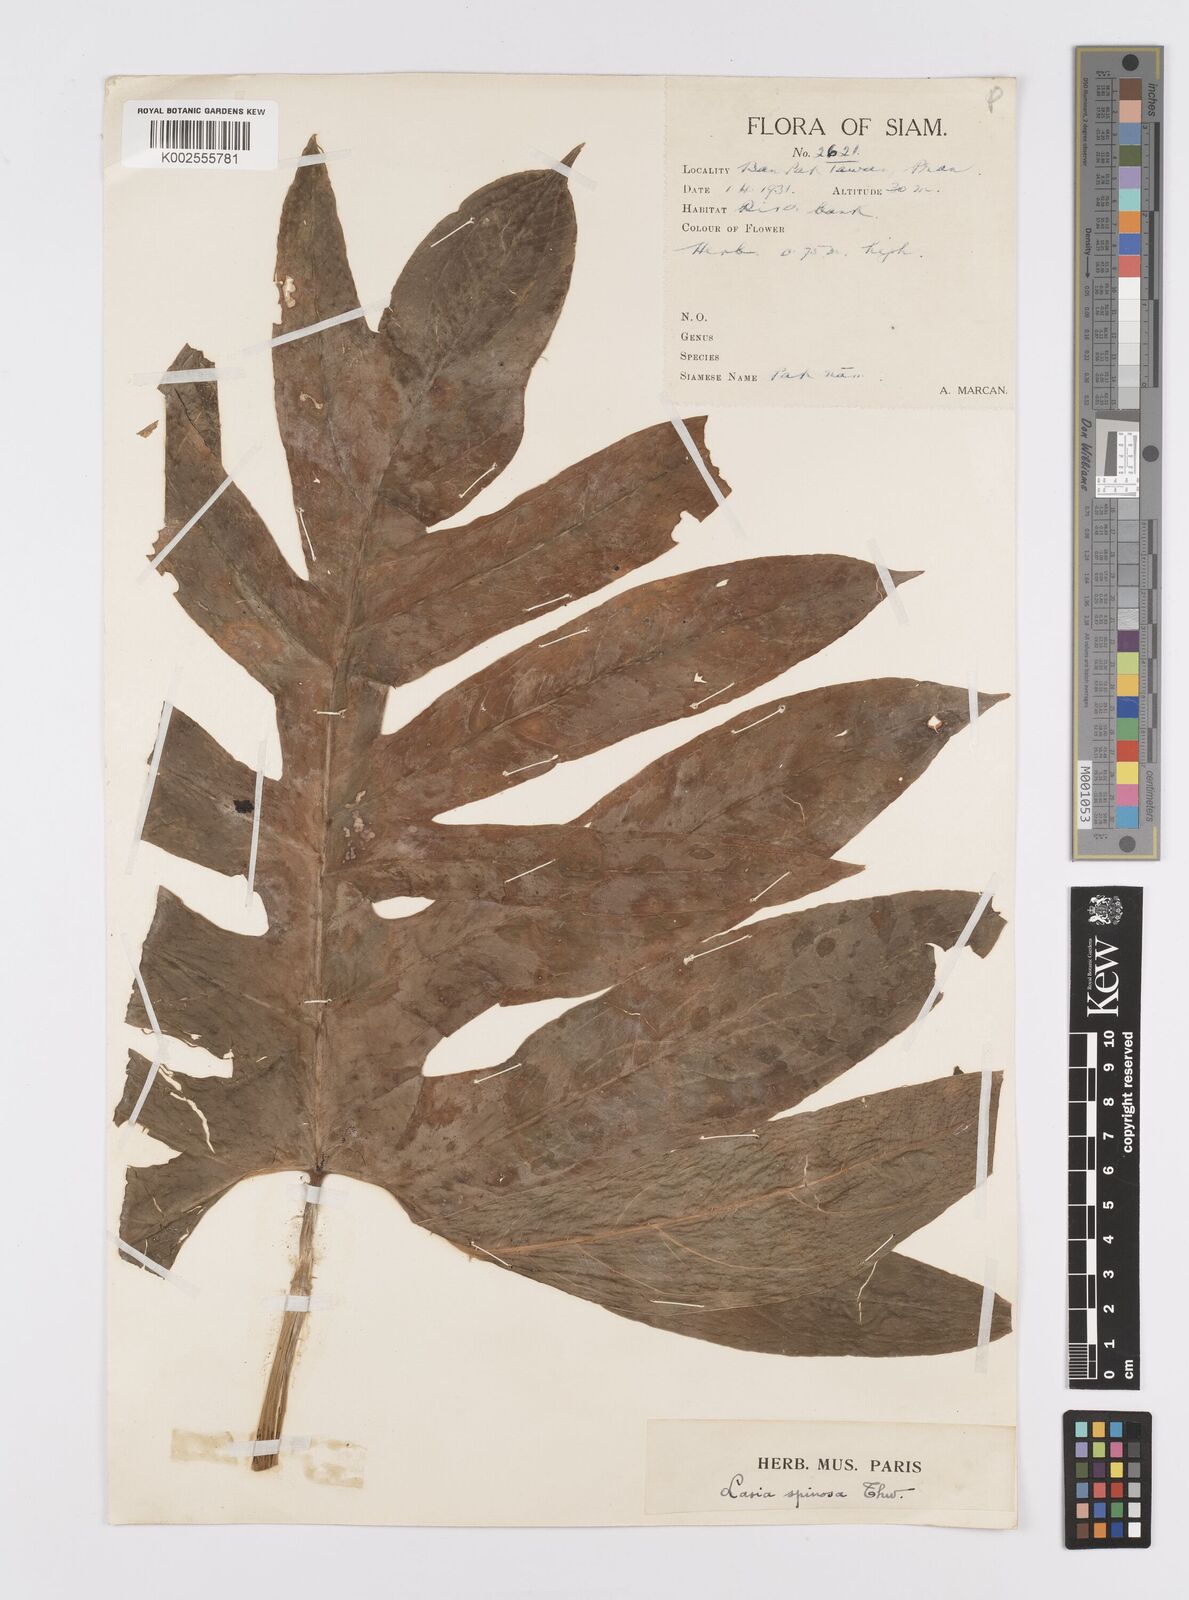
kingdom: Plantae
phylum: Tracheophyta
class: Liliopsida
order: Alismatales
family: Araceae
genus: Lasia
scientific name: Lasia spinosa
